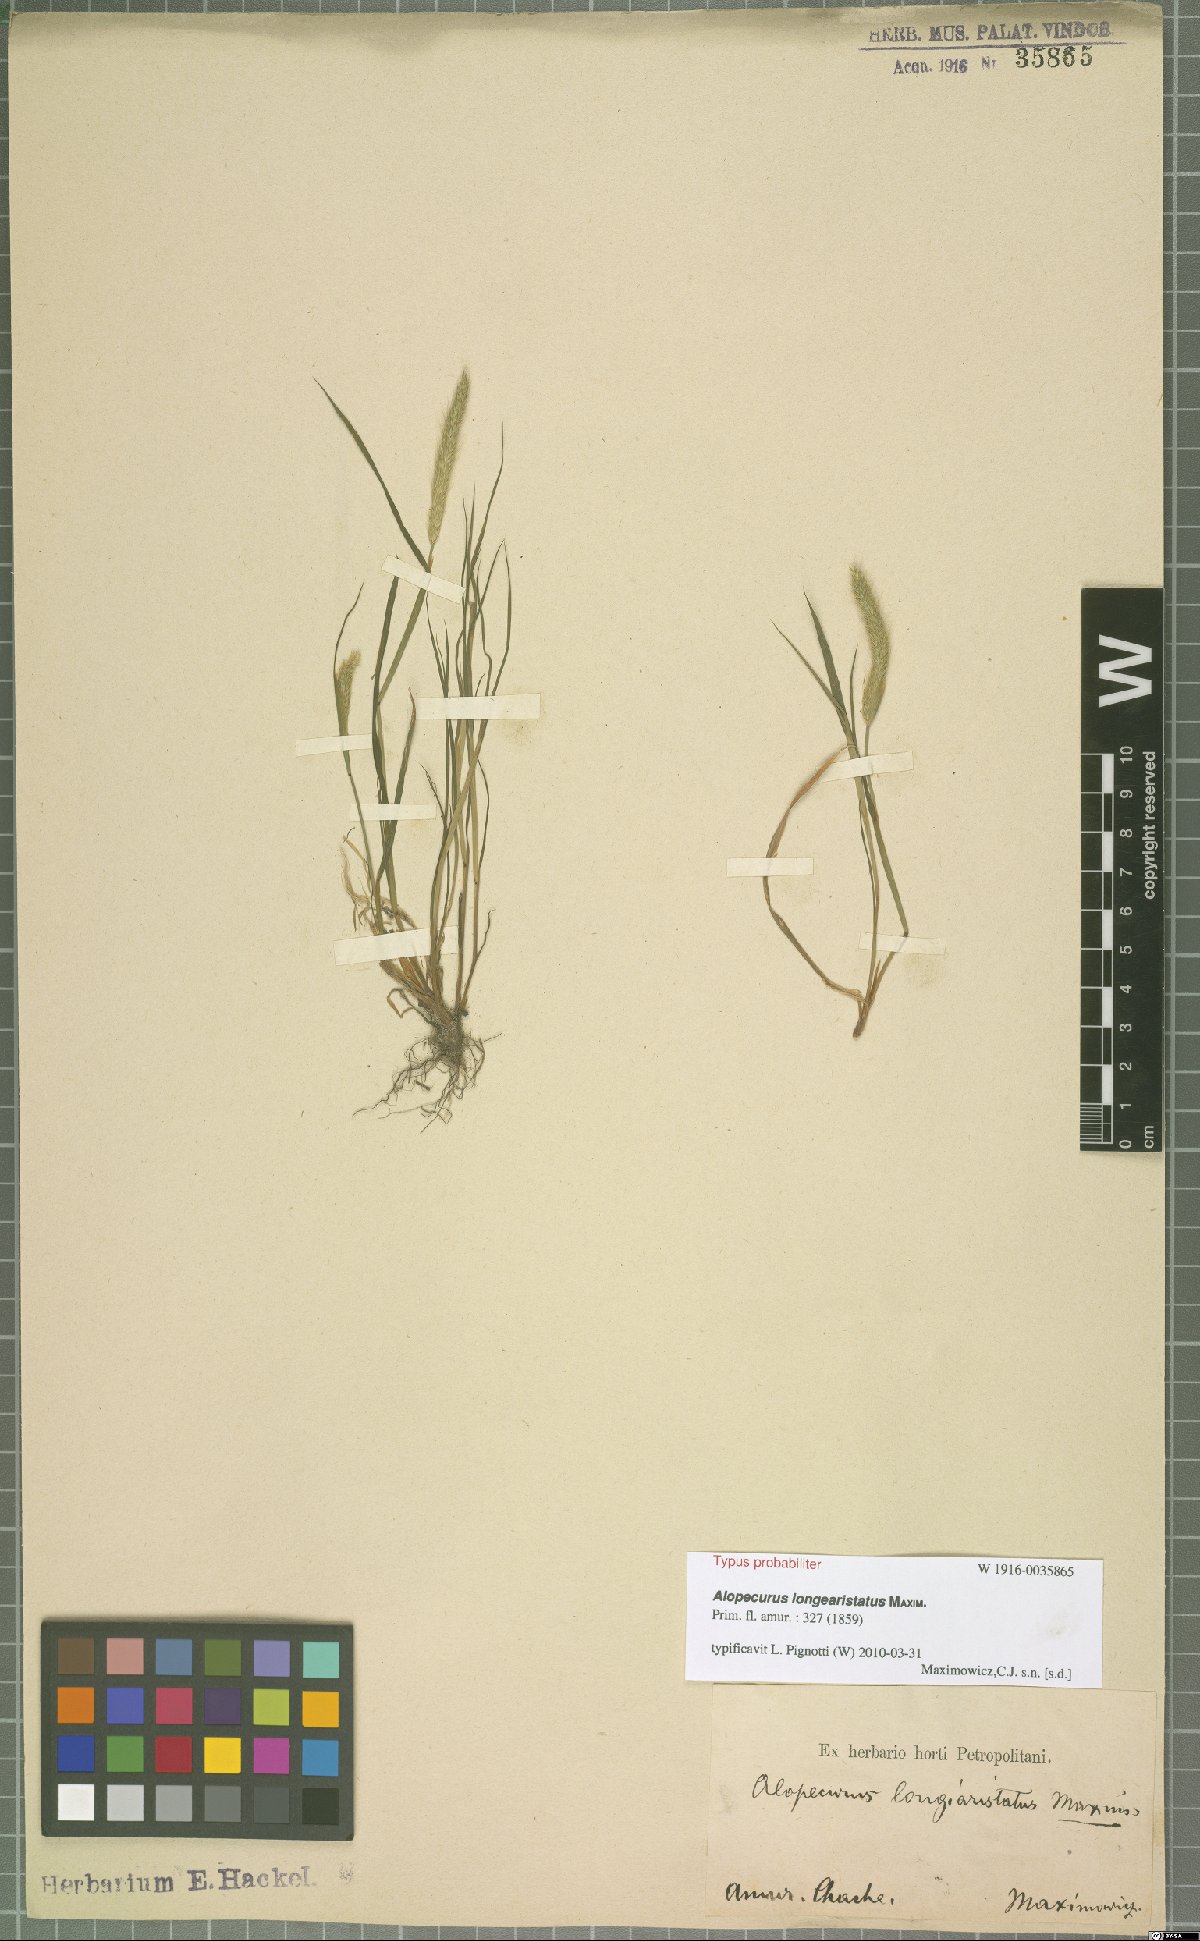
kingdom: Plantae
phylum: Tracheophyta
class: Liliopsida
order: Poales
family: Poaceae
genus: Alopecurus
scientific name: Alopecurus longearistatus
